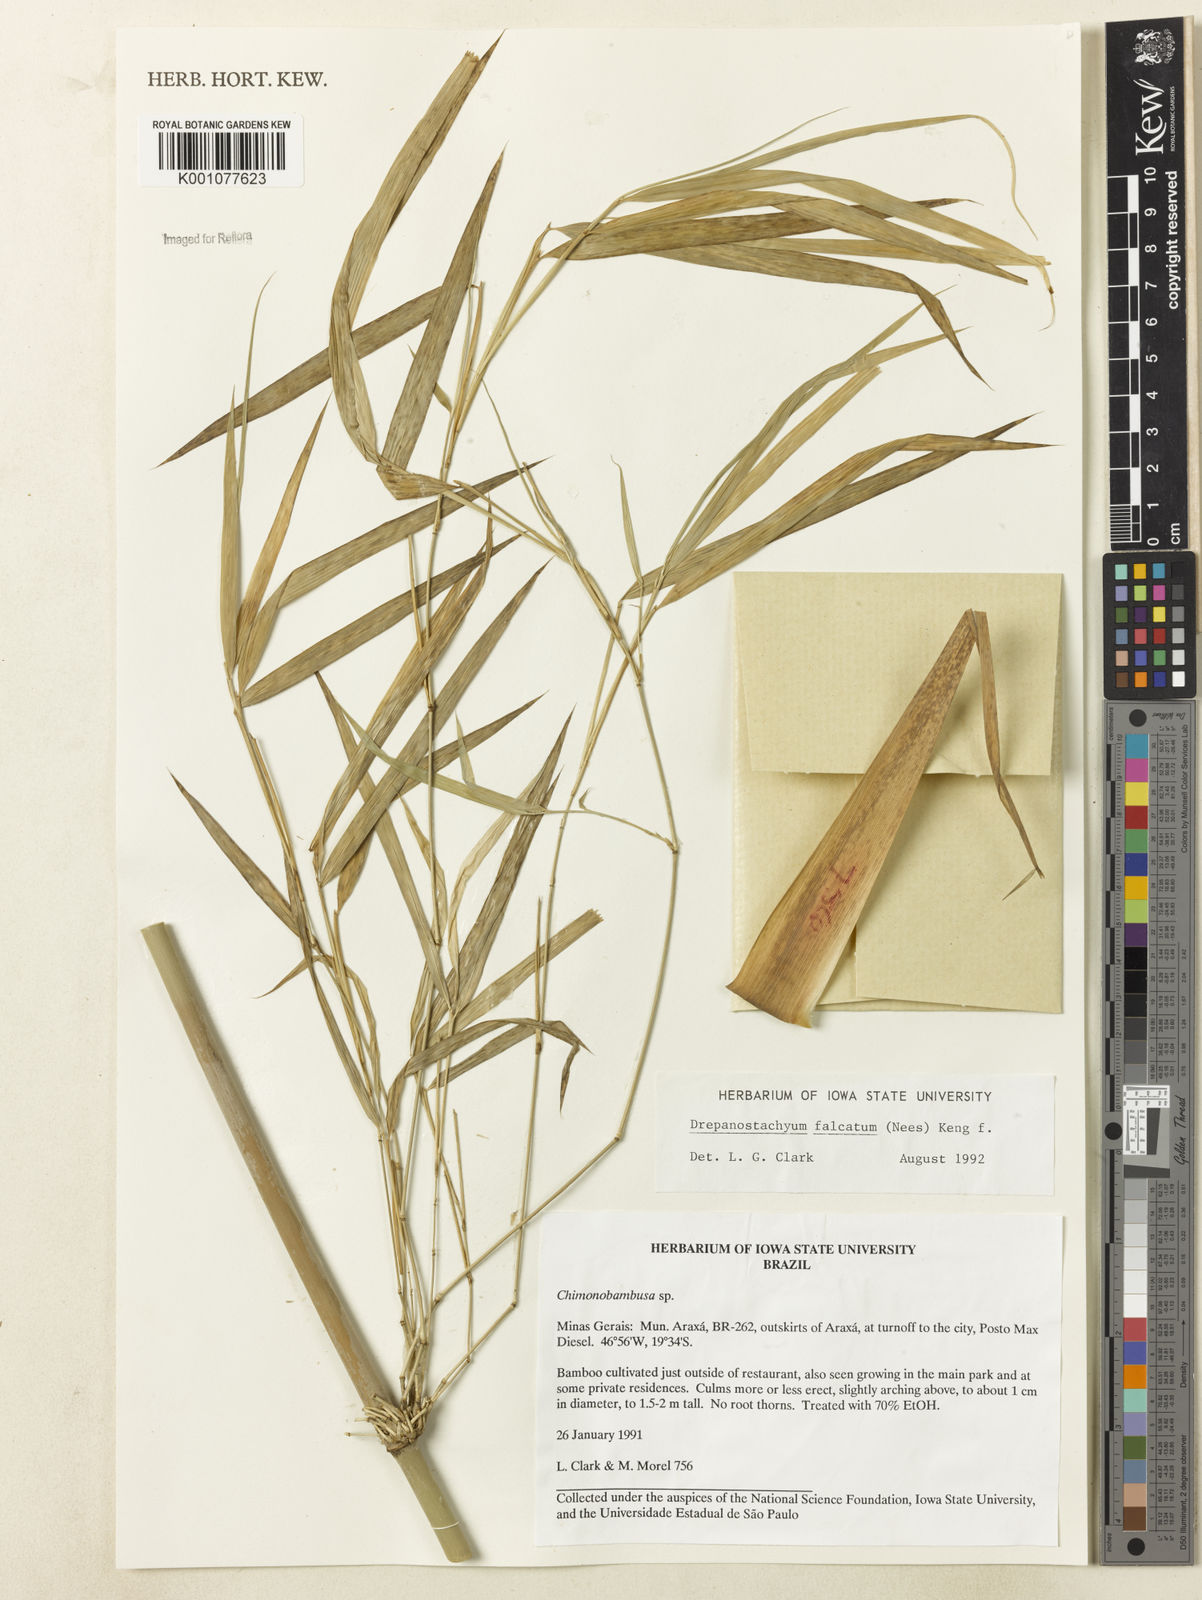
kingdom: Plantae
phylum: Tracheophyta
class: Liliopsida
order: Poales
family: Poaceae
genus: Drepanostachyum
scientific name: Drepanostachyum falcatum
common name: Himalayan bamboo
